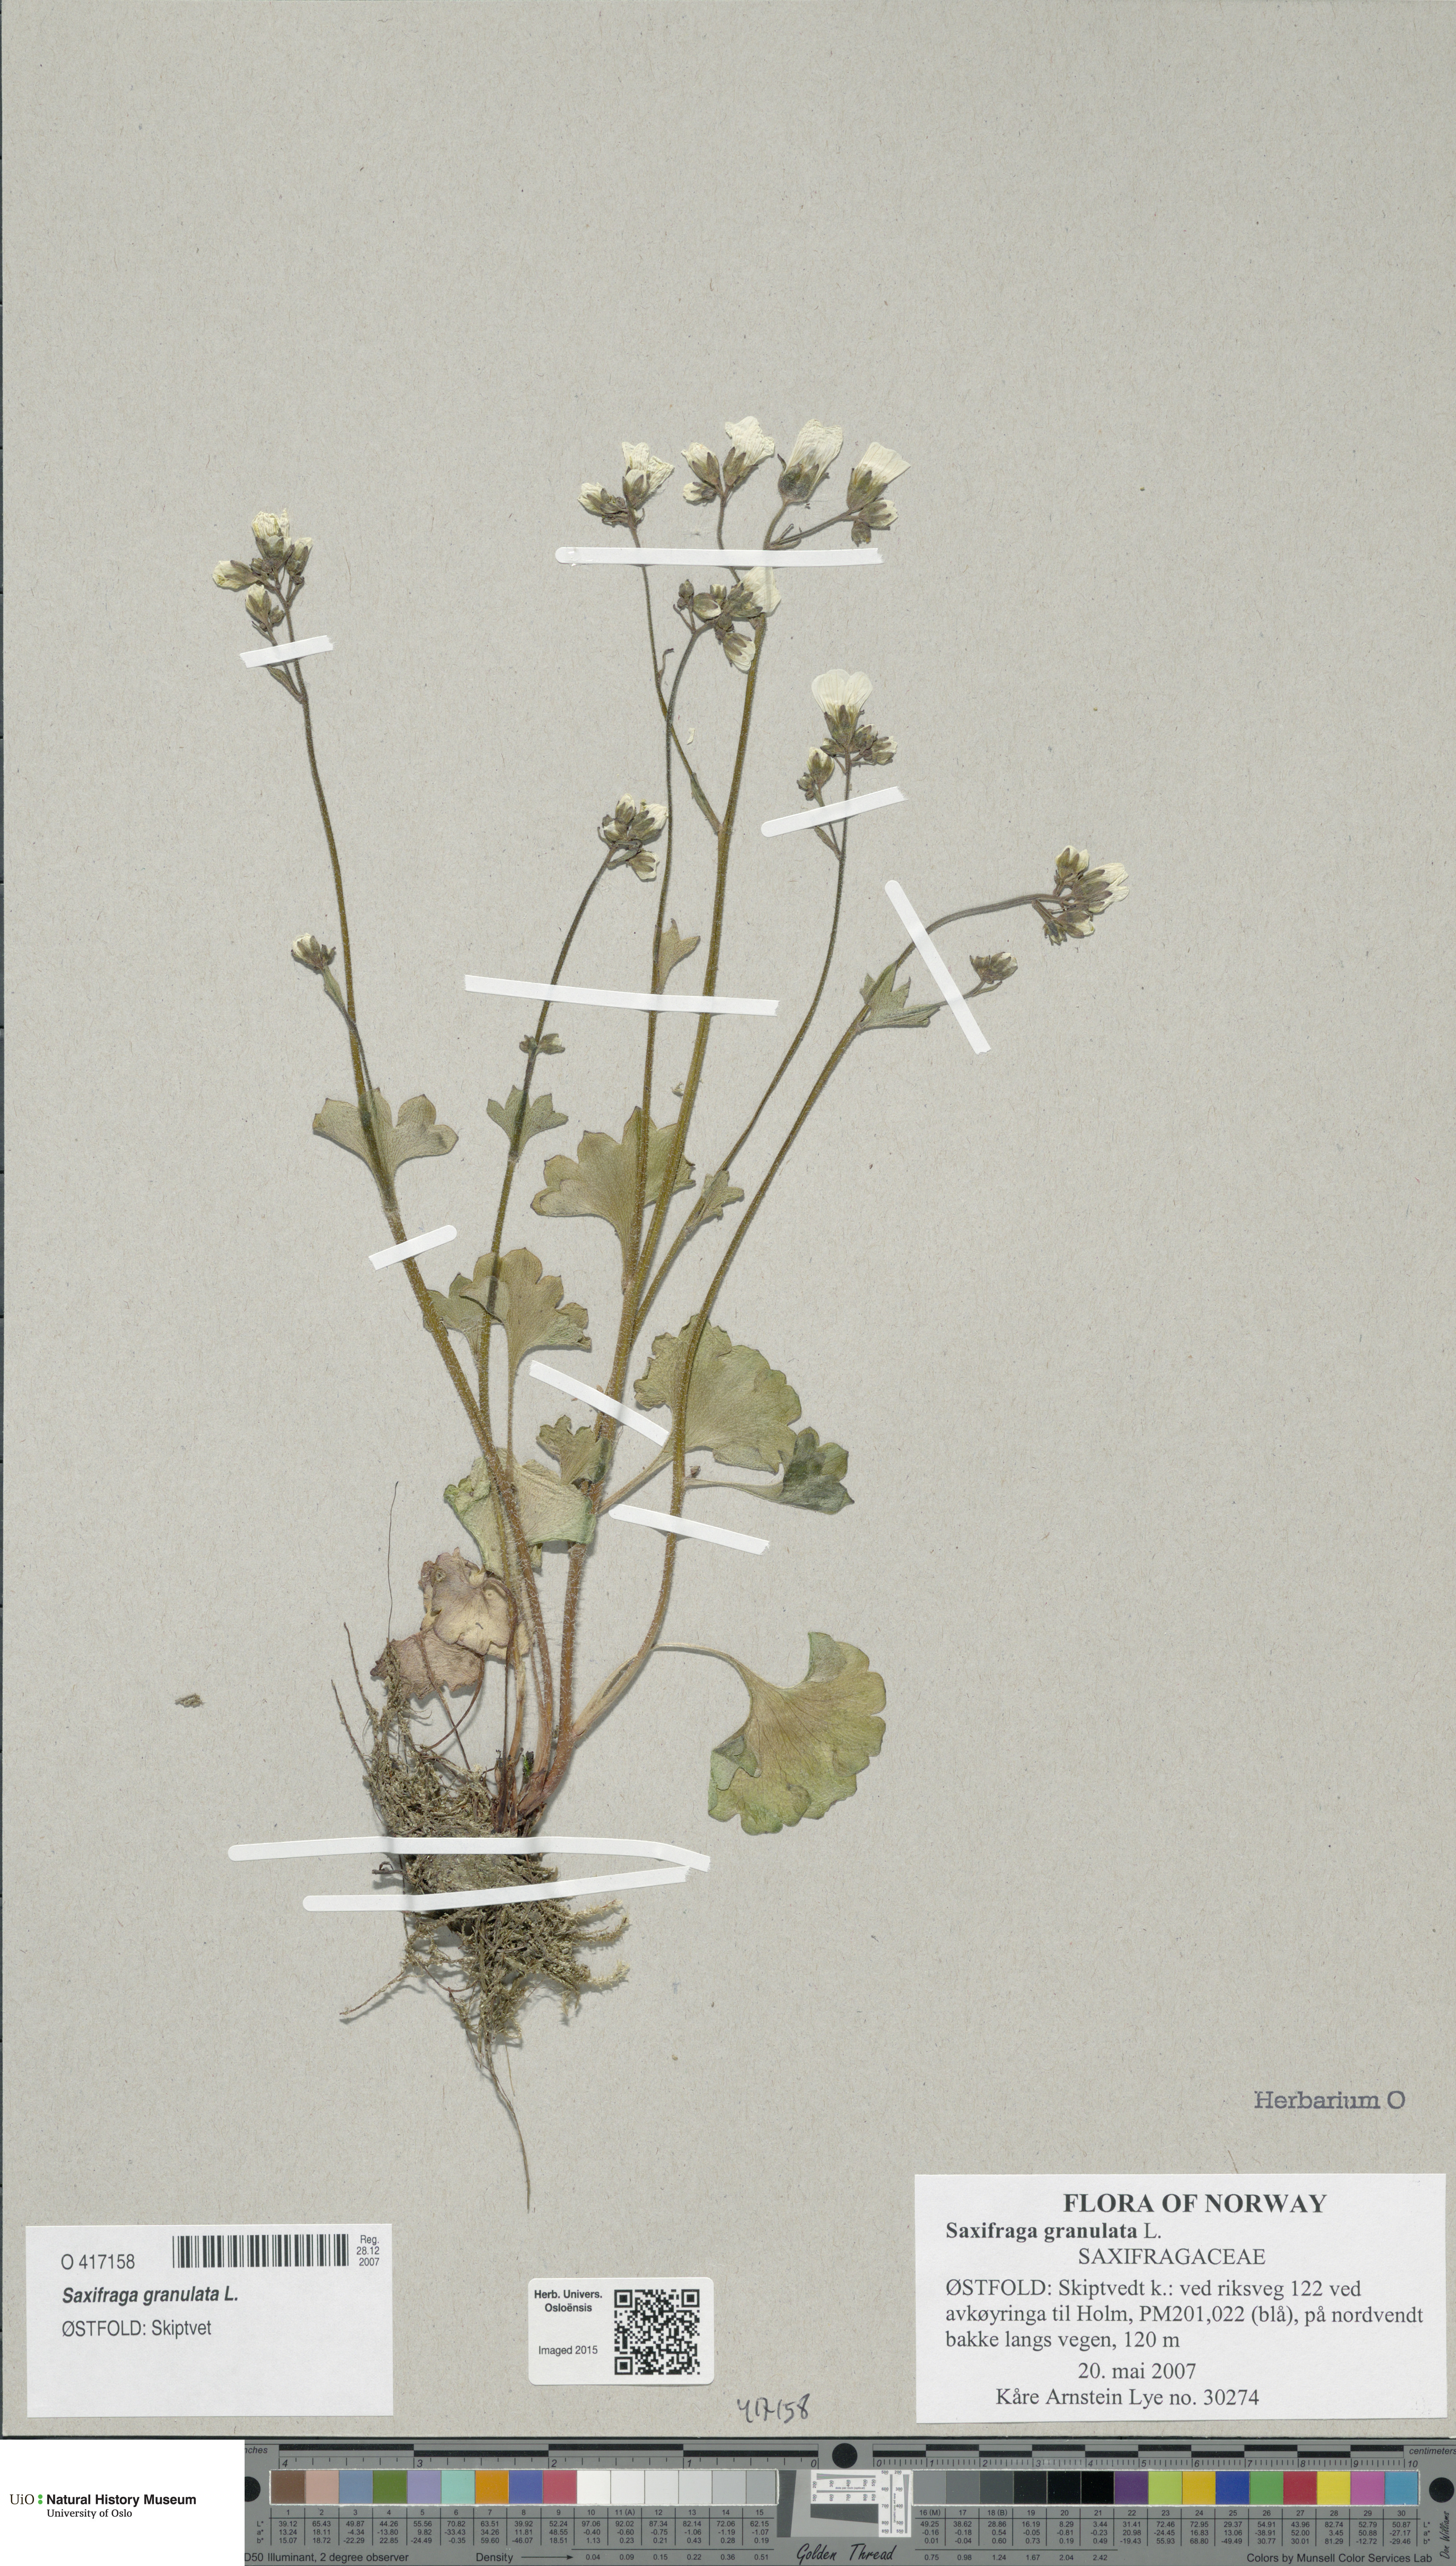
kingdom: Plantae
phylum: Tracheophyta
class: Magnoliopsida
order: Saxifragales
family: Saxifragaceae
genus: Saxifraga
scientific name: Saxifraga granulata
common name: Meadow saxifrage
